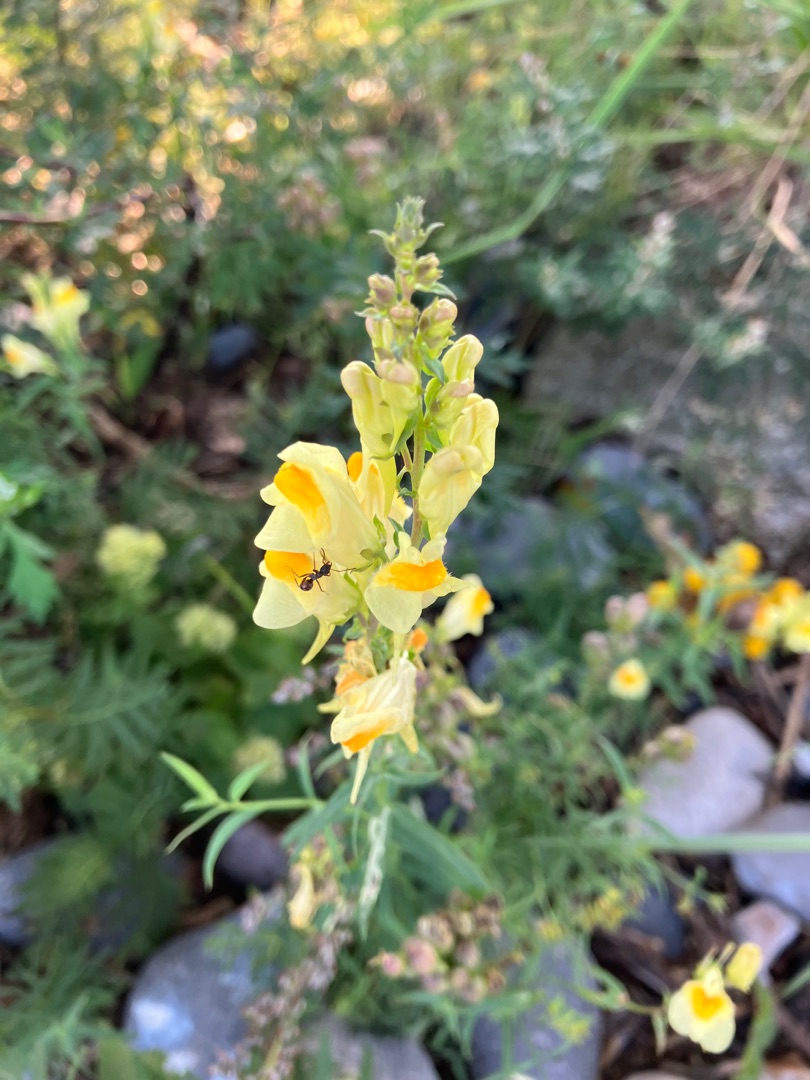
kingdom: Plantae
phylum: Tracheophyta
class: Magnoliopsida
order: Lamiales
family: Plantaginaceae
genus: Linaria
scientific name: Linaria vulgaris
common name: Almindelig torskemund
